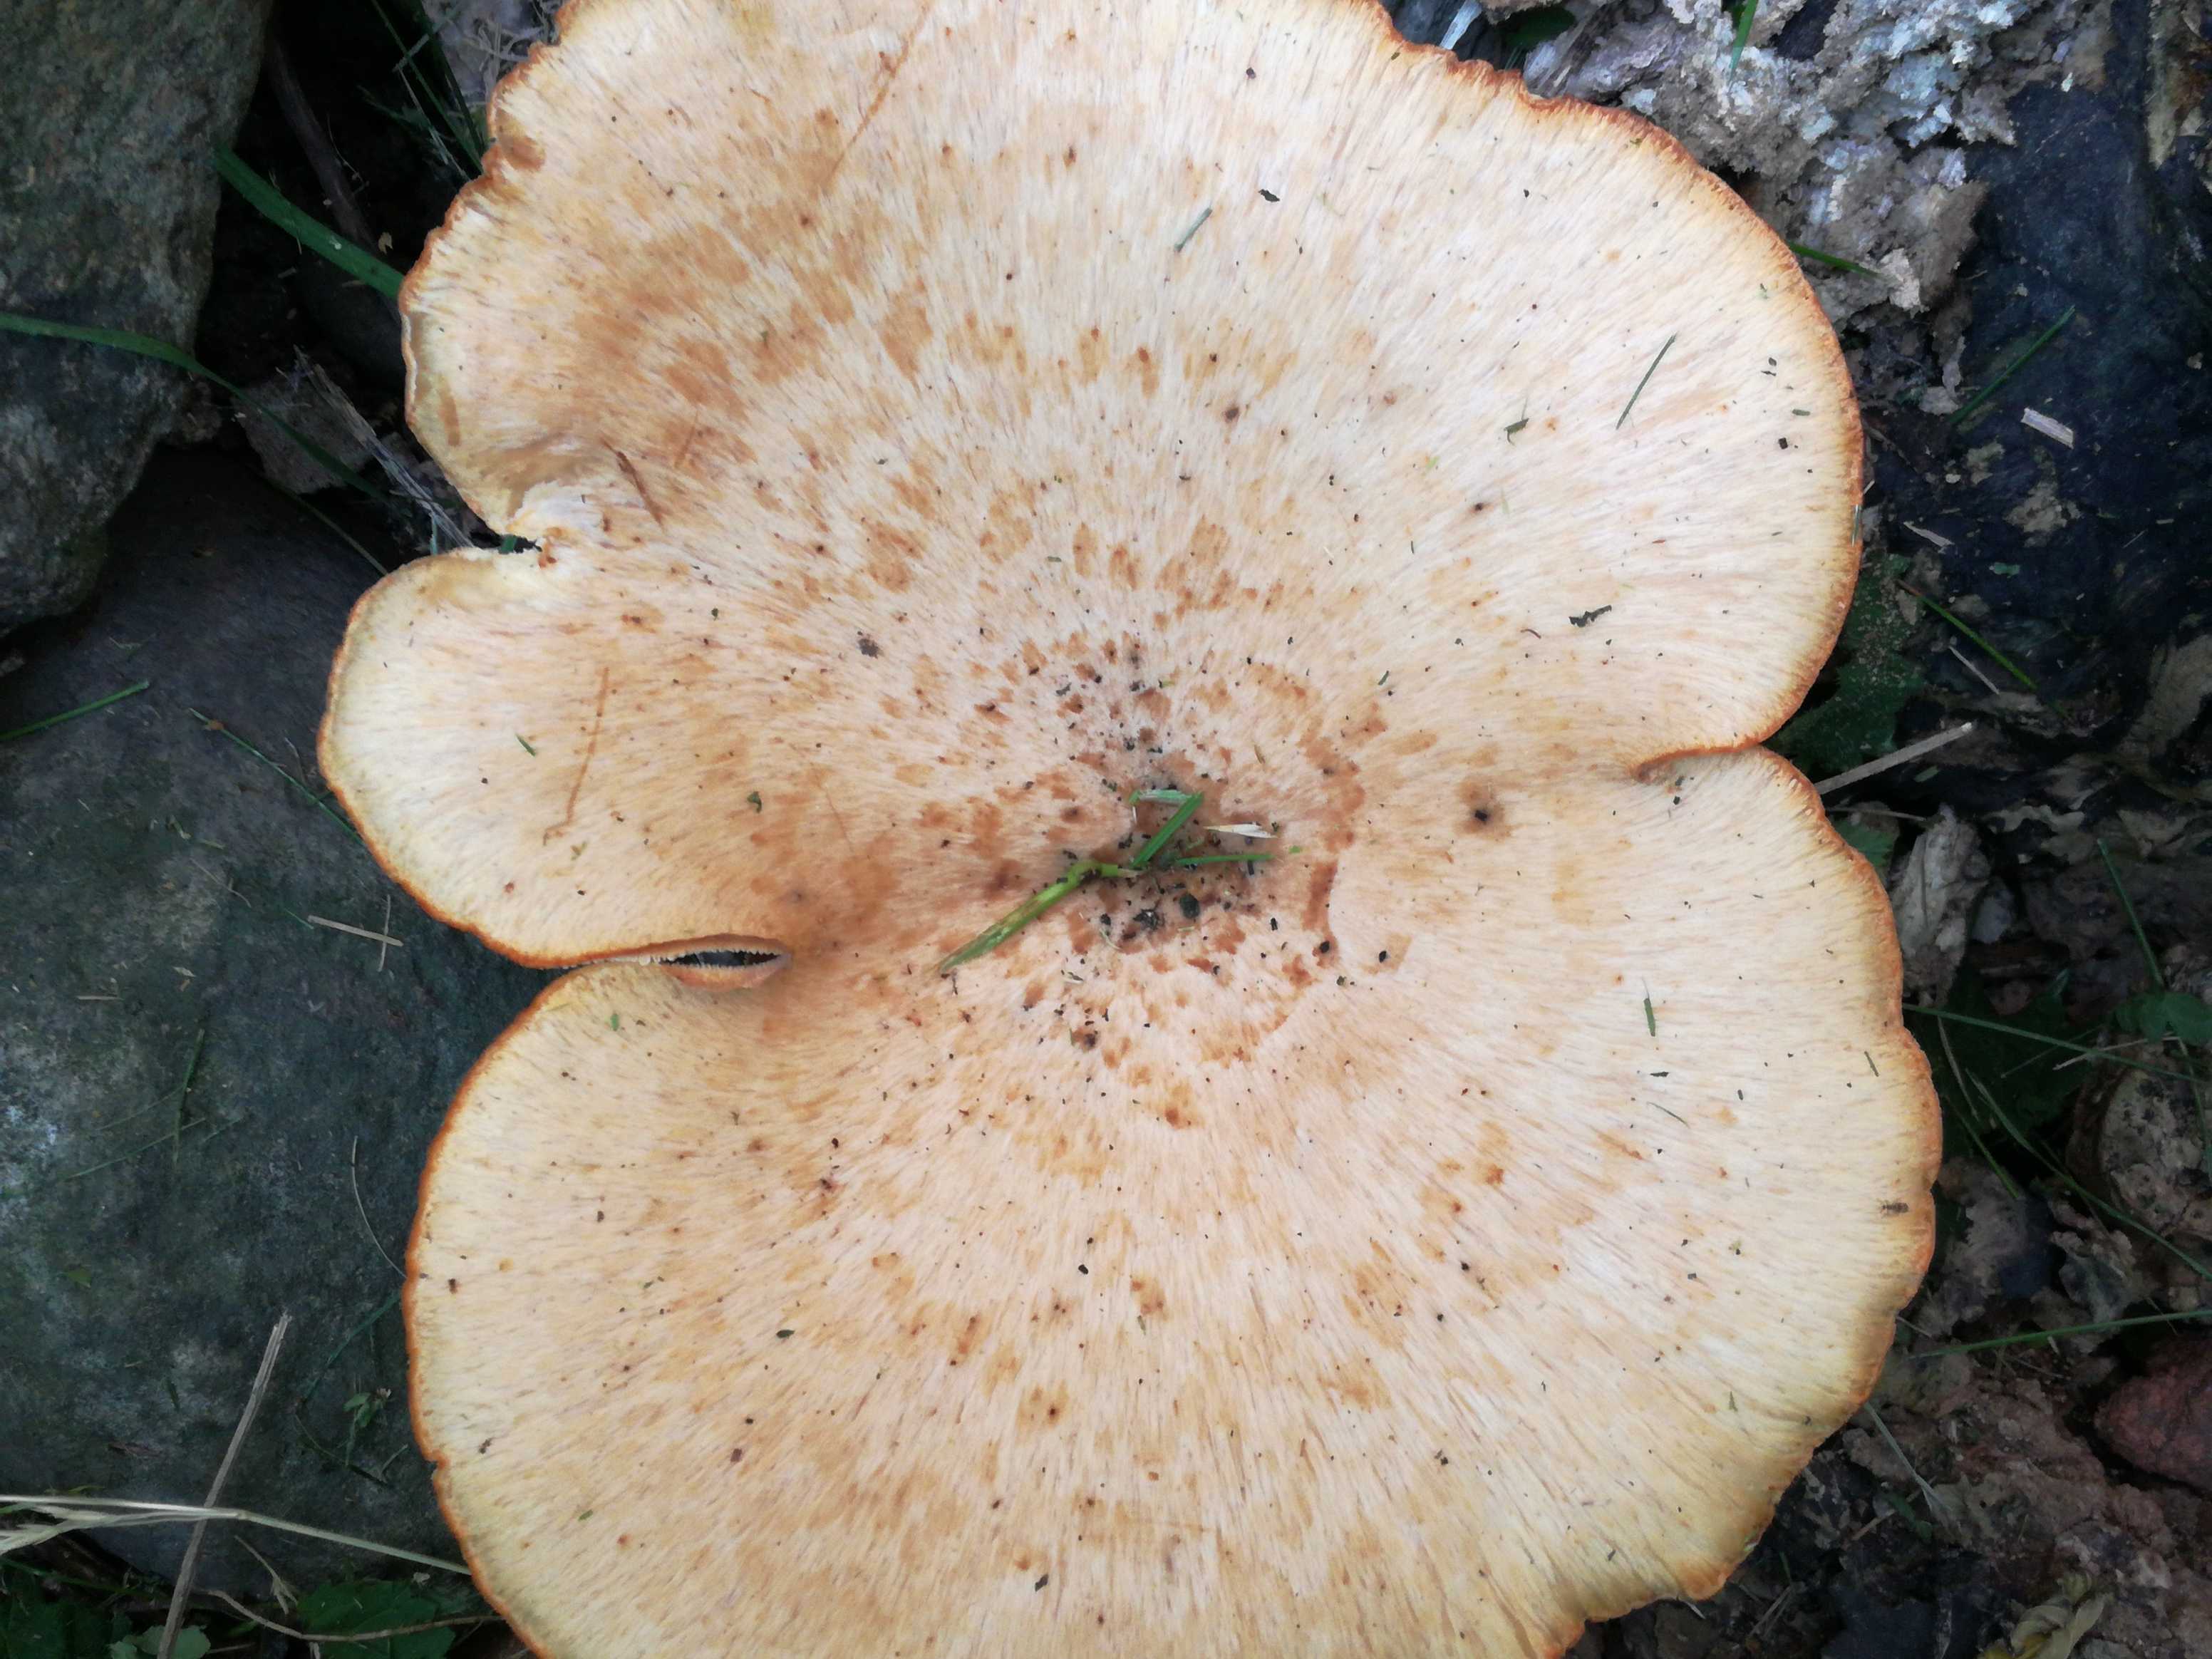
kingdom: Fungi
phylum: Basidiomycota
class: Agaricomycetes
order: Polyporales
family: Polyporaceae
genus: Cerioporus
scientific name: Cerioporus squamosus
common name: skællet stilkporesvamp
